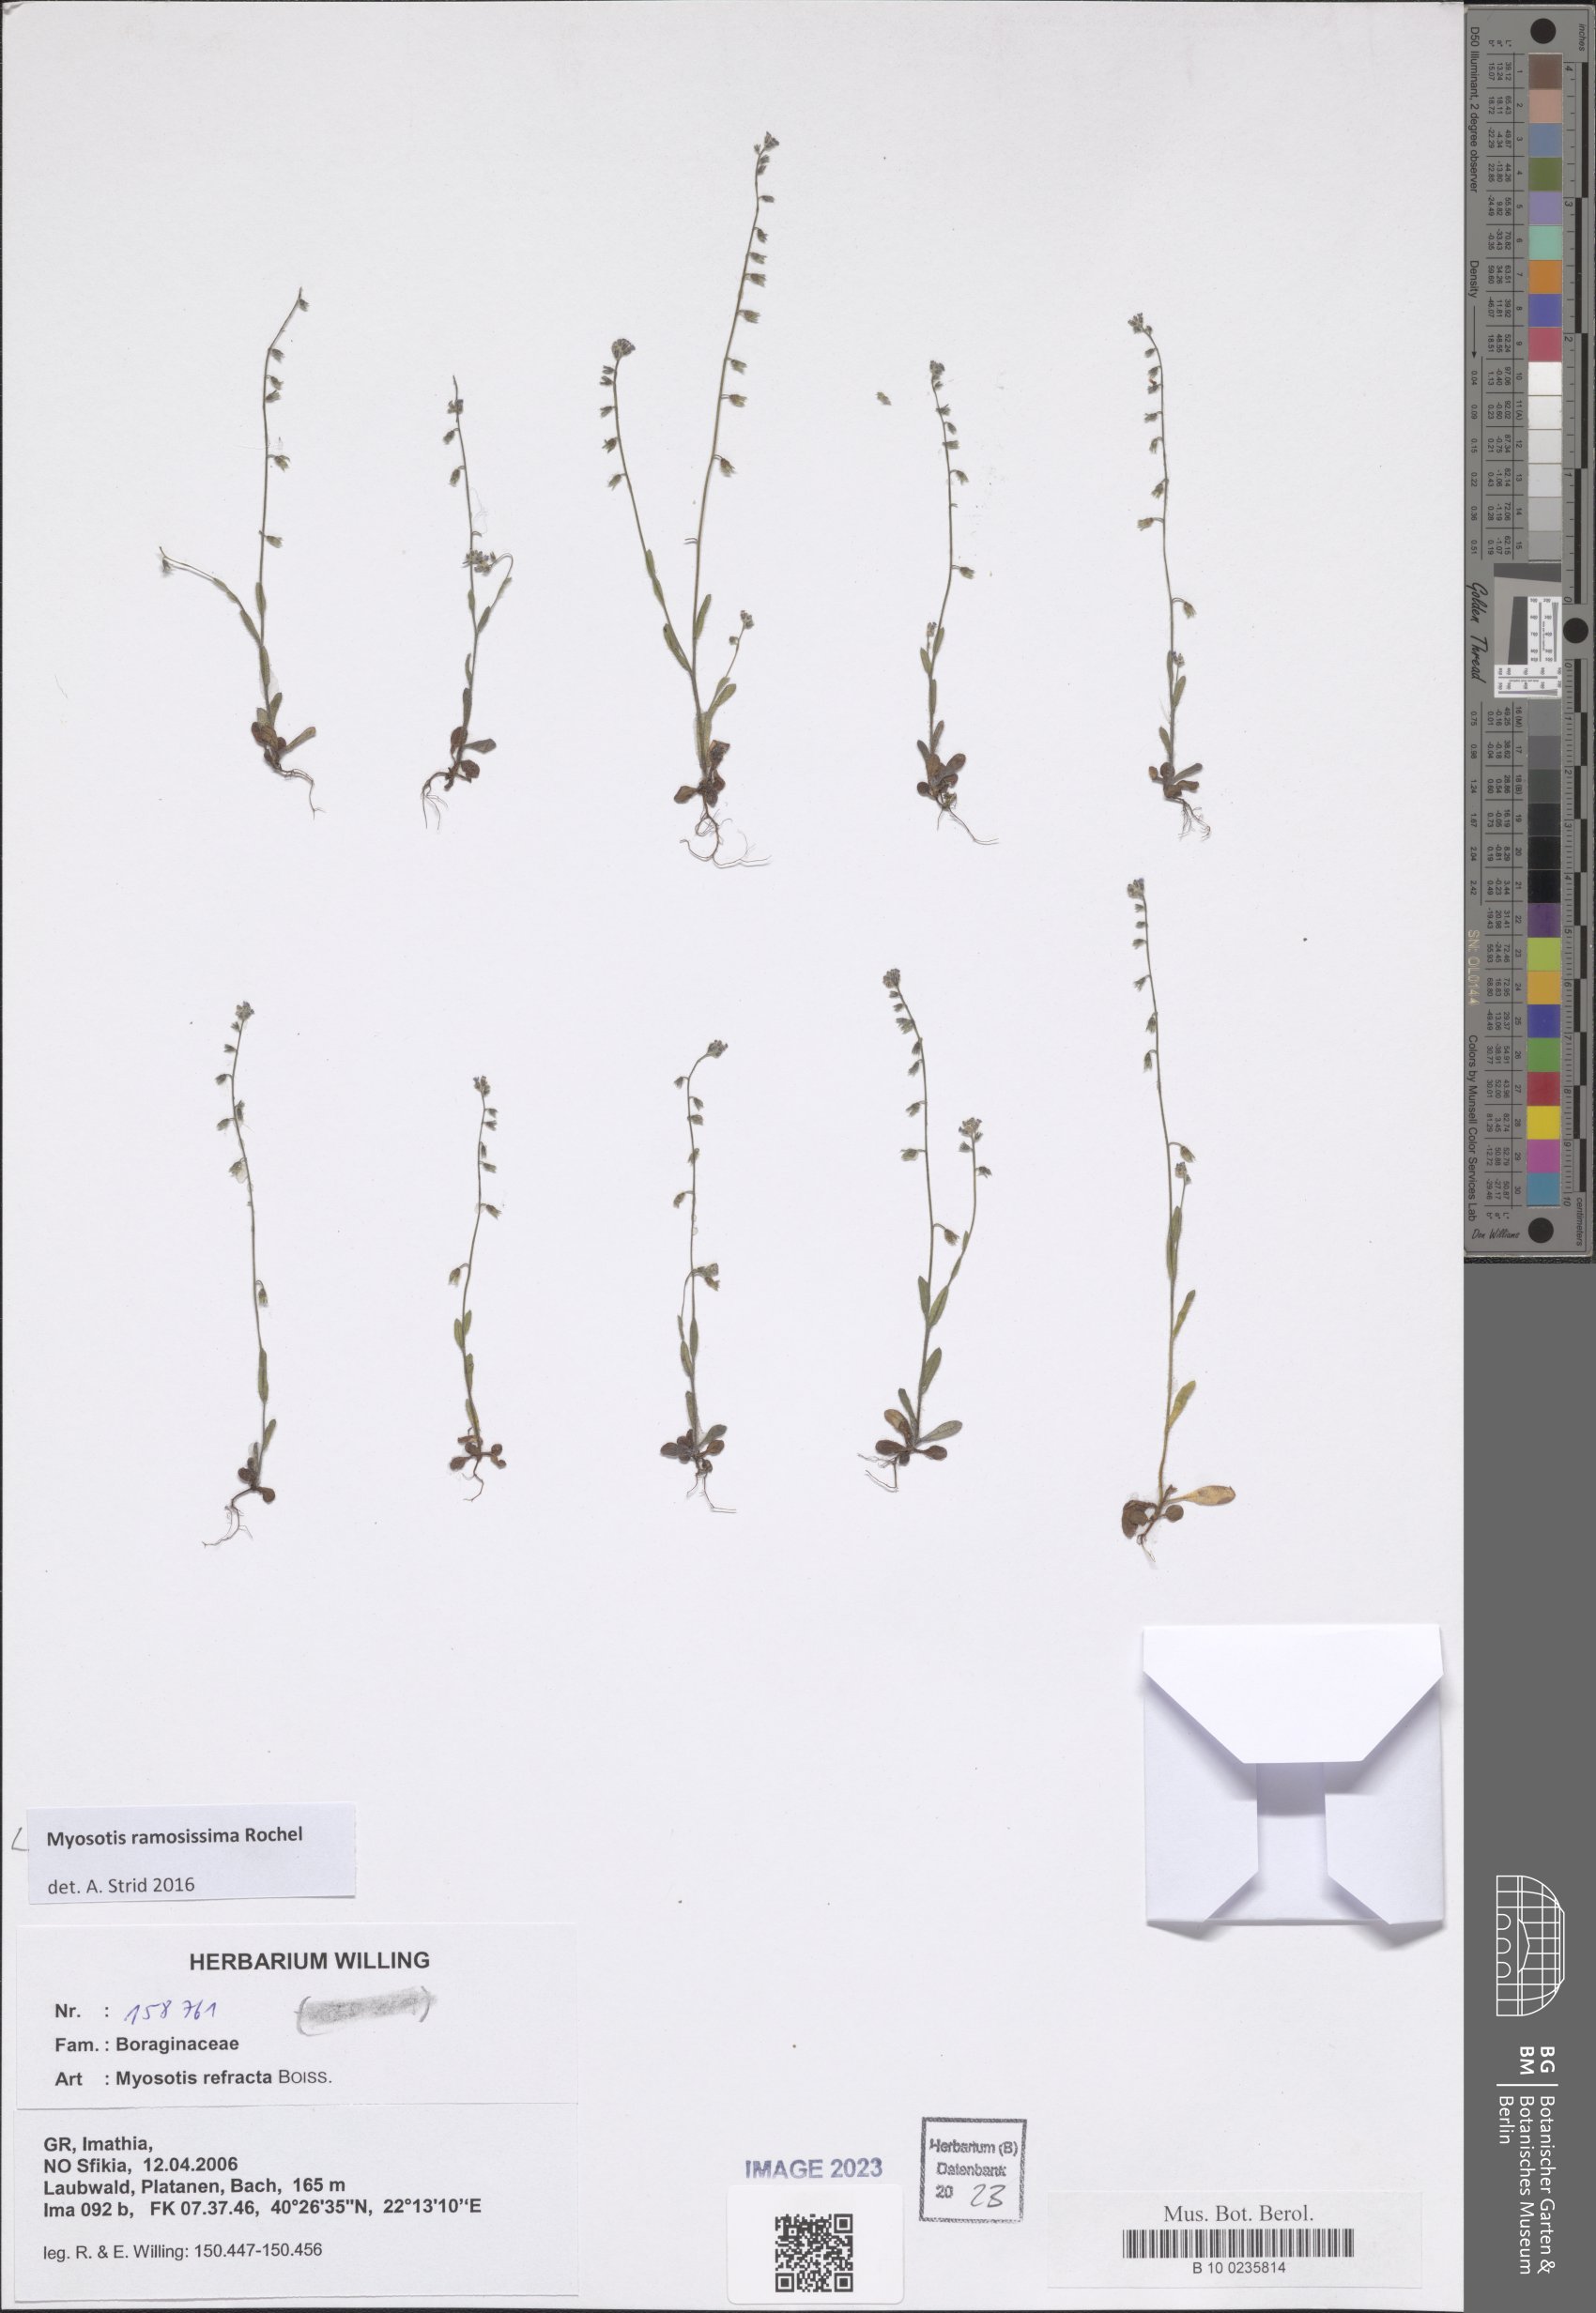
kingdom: Plantae
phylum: Tracheophyta
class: Magnoliopsida
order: Boraginales
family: Boraginaceae
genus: Myosotis
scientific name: Myosotis ramosissima
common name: Early forget-me-not
